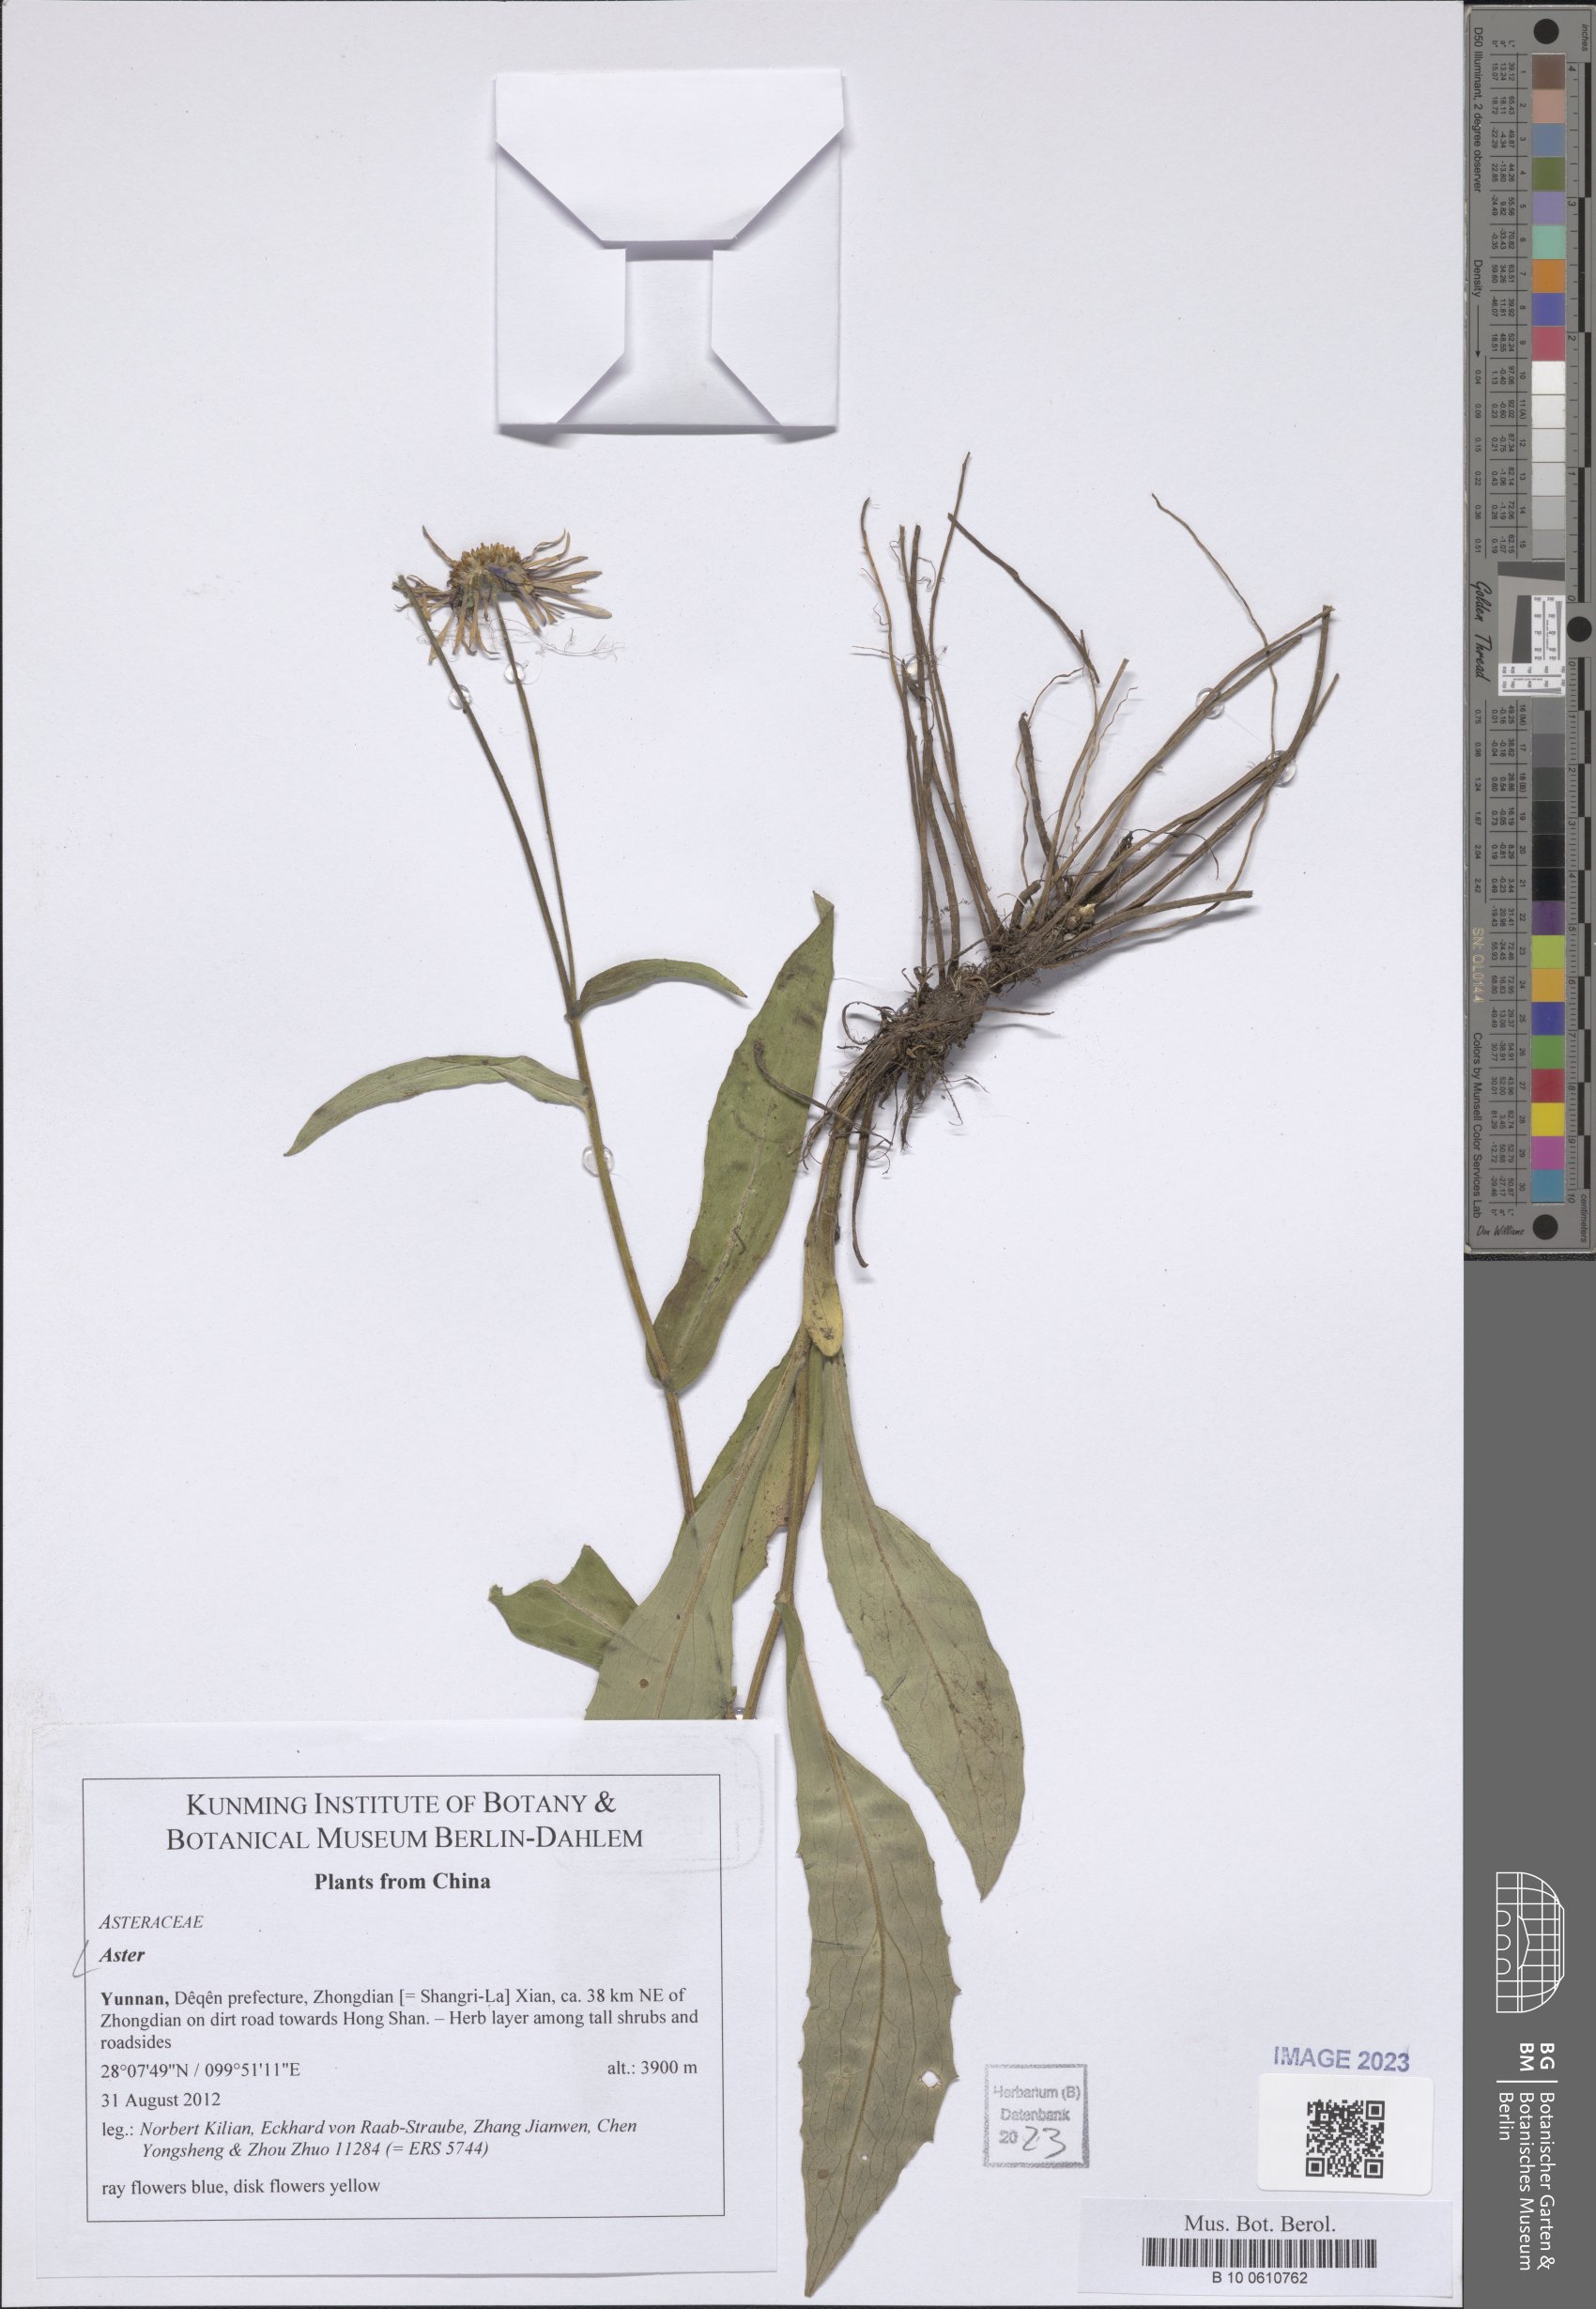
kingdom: Plantae
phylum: Tracheophyta
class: Magnoliopsida
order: Asterales
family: Asteraceae
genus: Aster
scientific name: Aster
